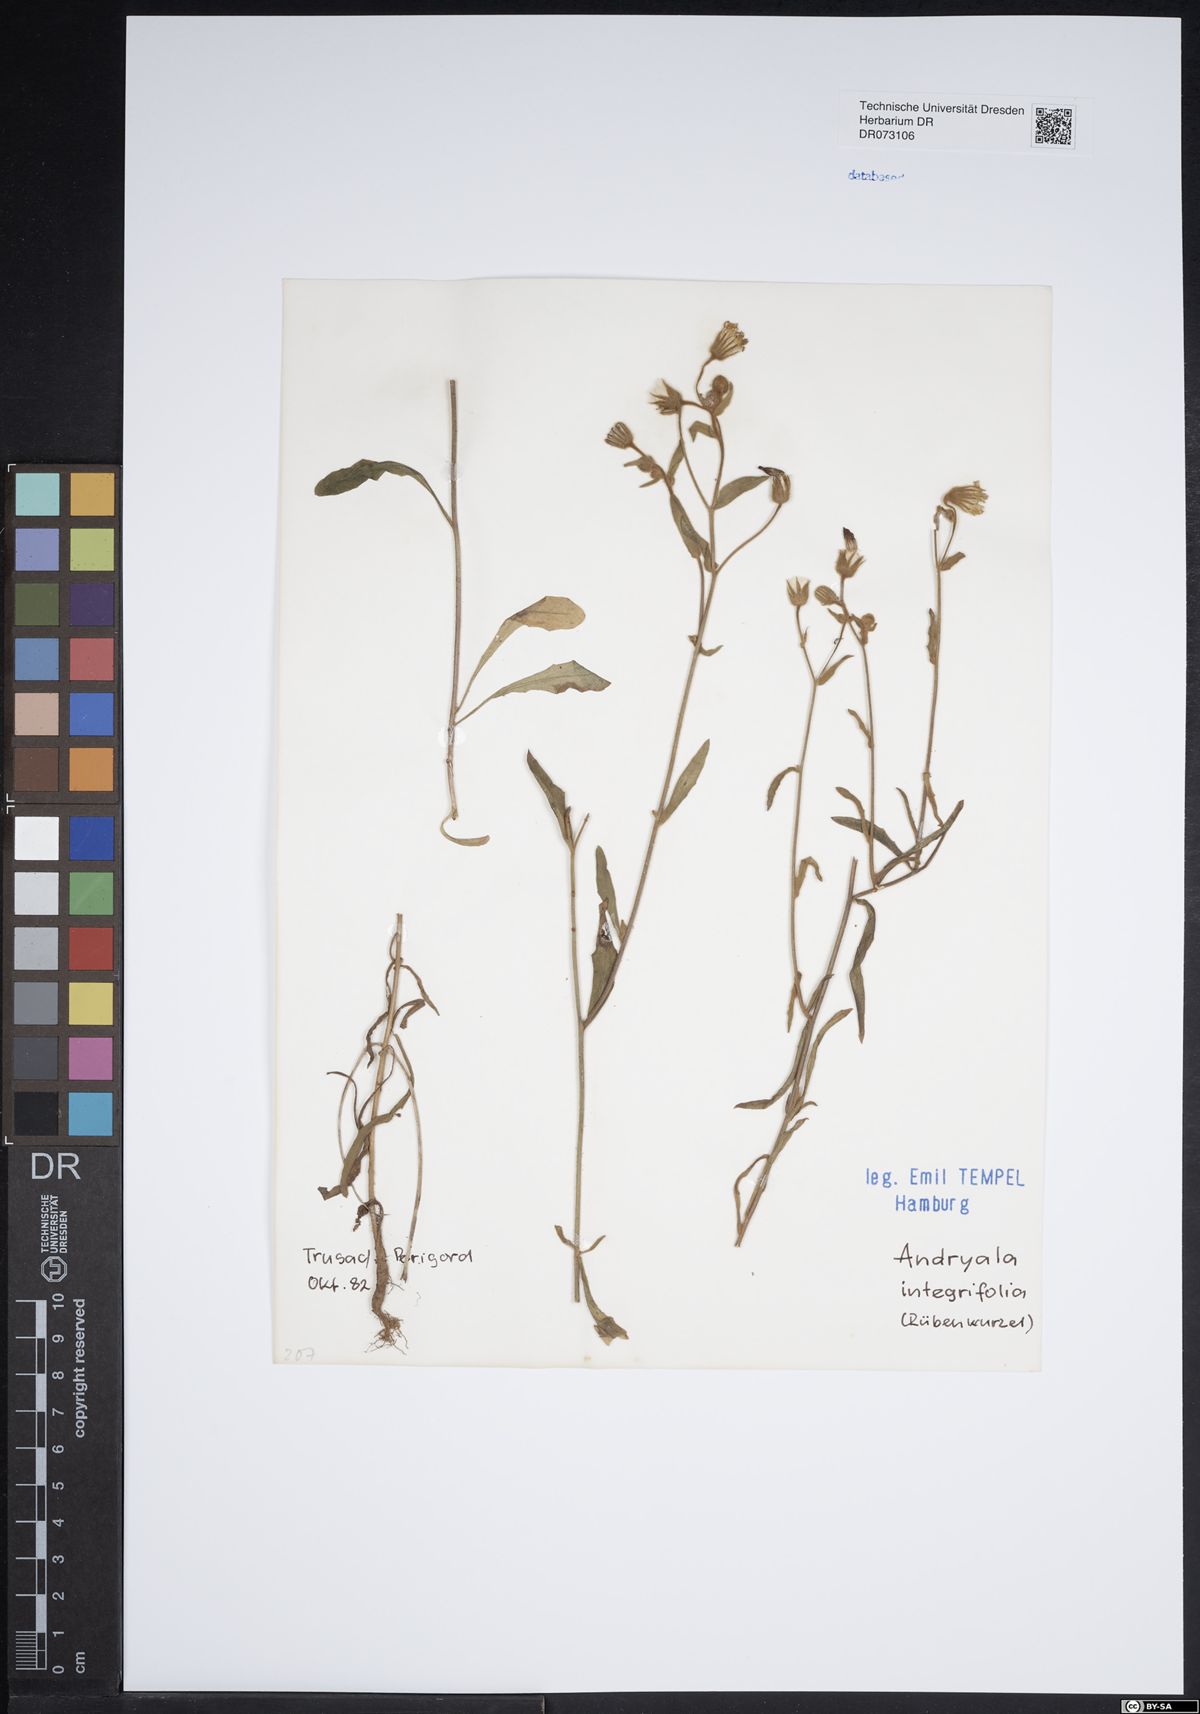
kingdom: Plantae
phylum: Tracheophyta
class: Magnoliopsida
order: Asterales
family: Asteraceae
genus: Andryala
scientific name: Andryala integrifolia
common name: Common andryala
